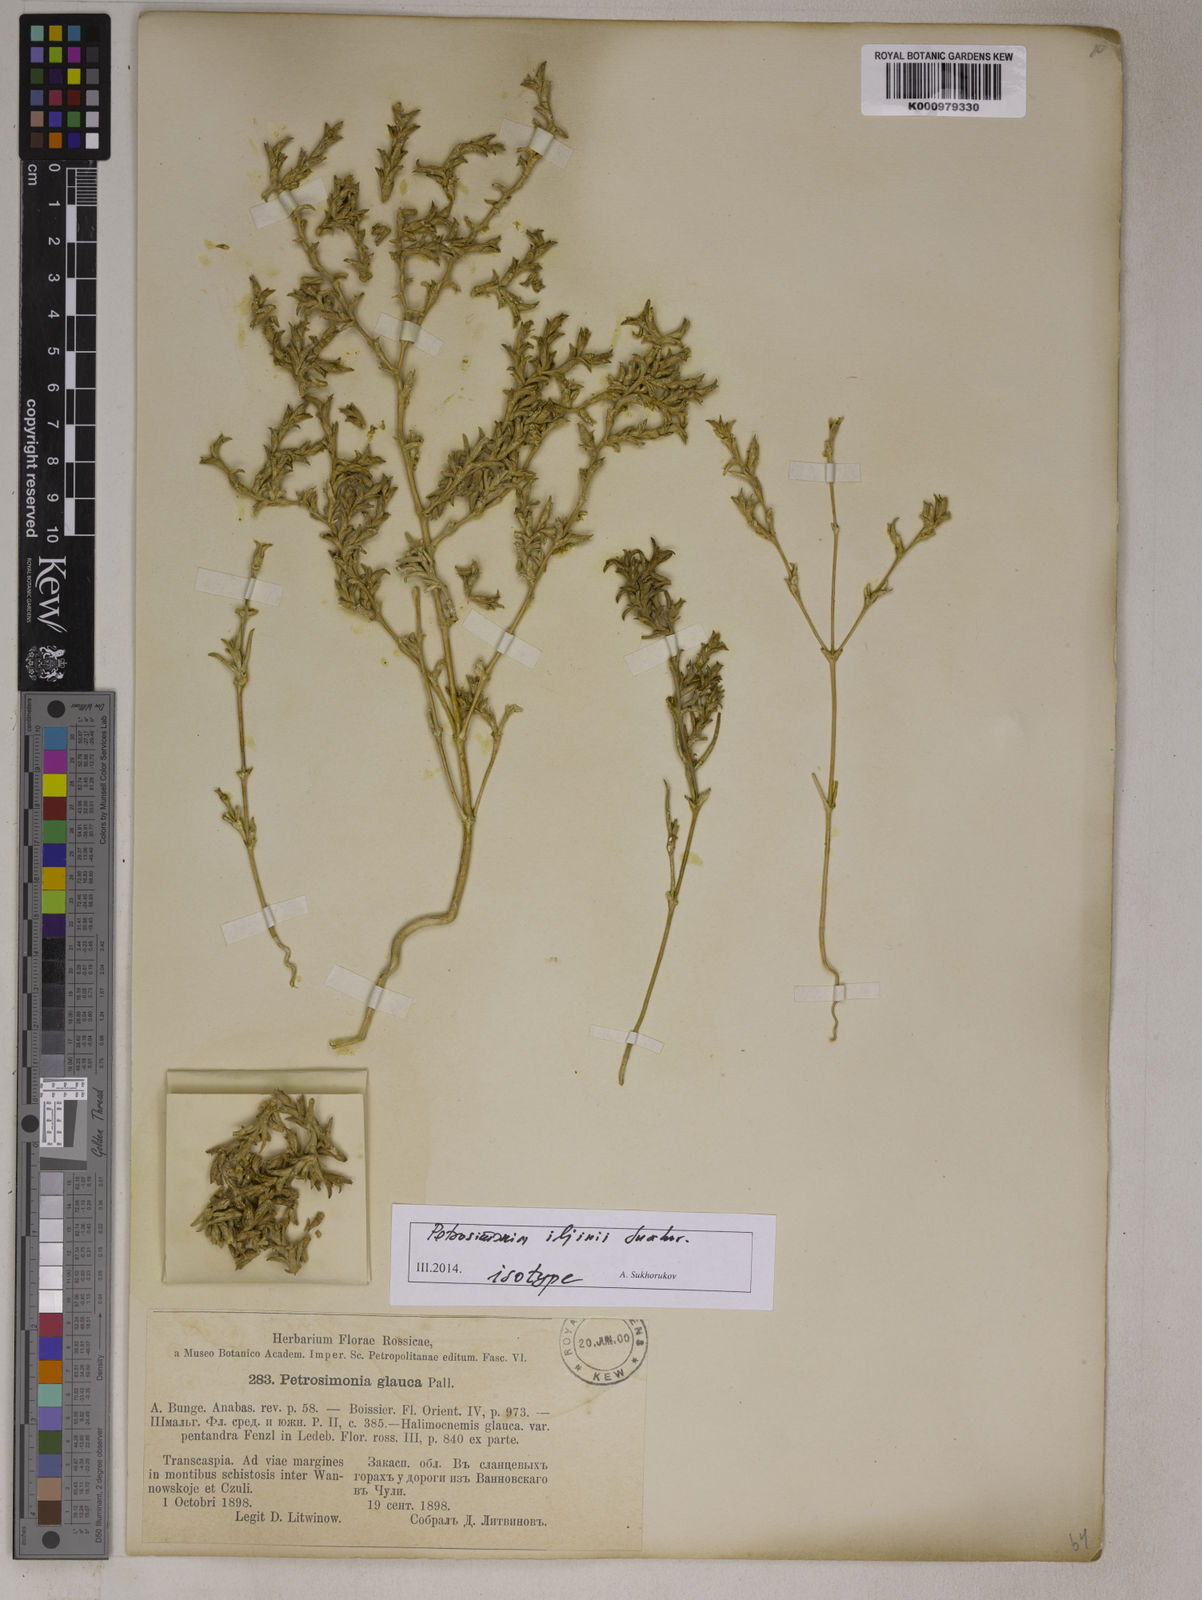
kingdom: Plantae
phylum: Tracheophyta
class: Magnoliopsida
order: Caryophyllales
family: Amaranthaceae
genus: Petrosimonia
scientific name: Petrosimonia
